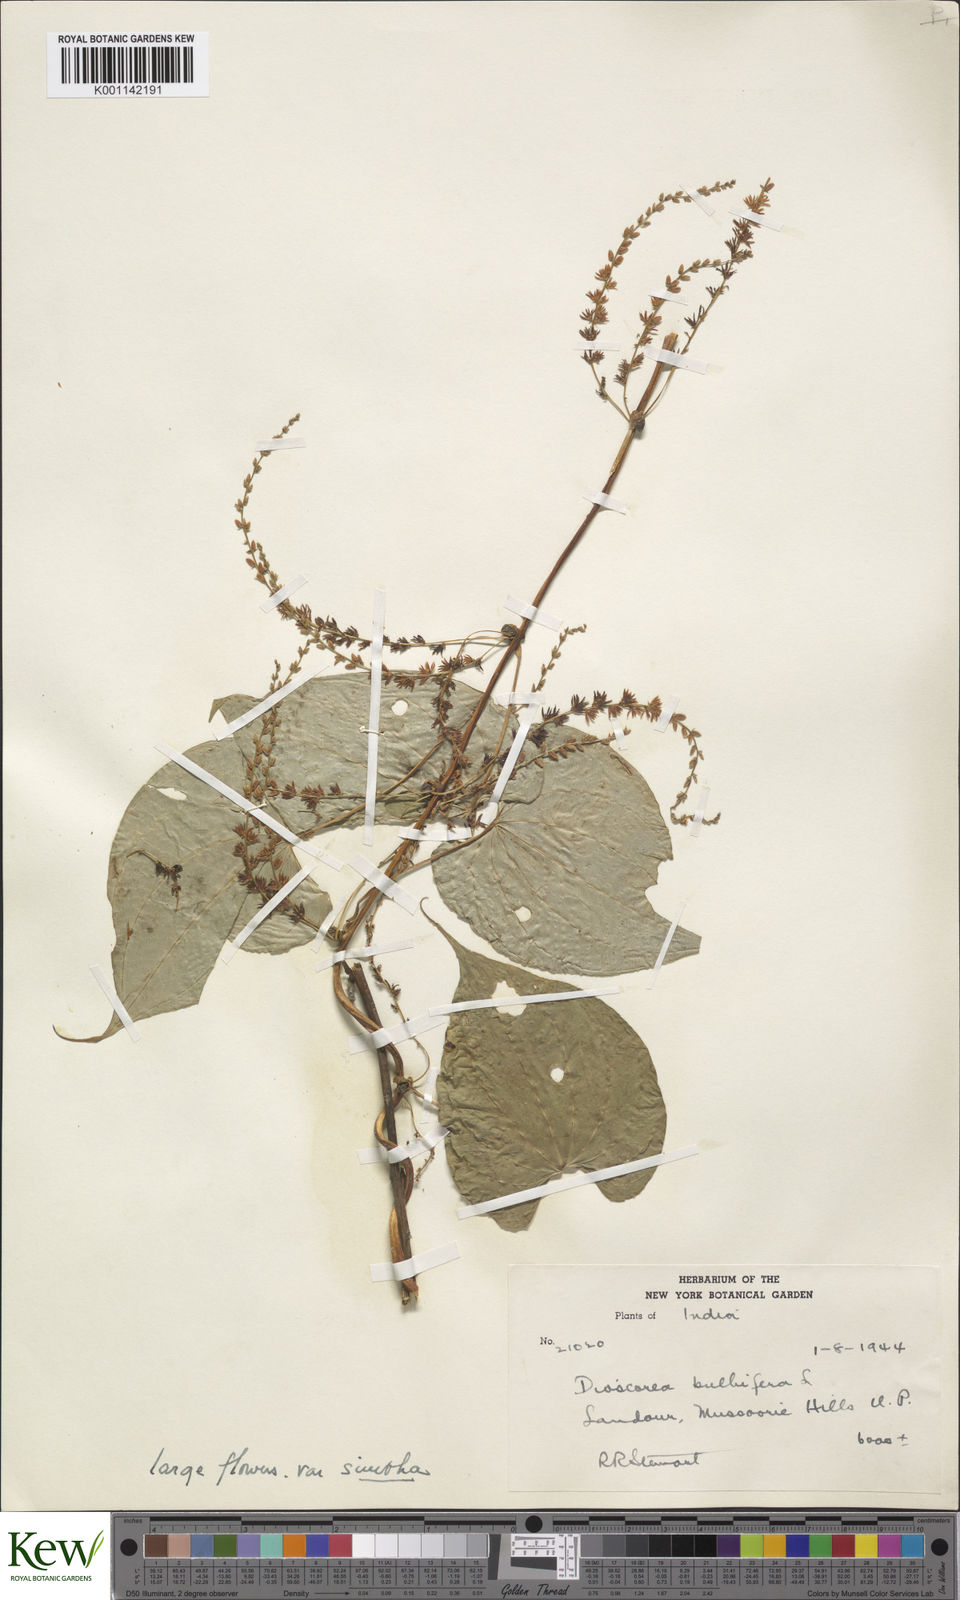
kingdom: Plantae
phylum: Tracheophyta
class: Liliopsida
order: Dioscoreales
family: Dioscoreaceae
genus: Dioscorea
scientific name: Dioscorea bulbifera
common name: Air yam
